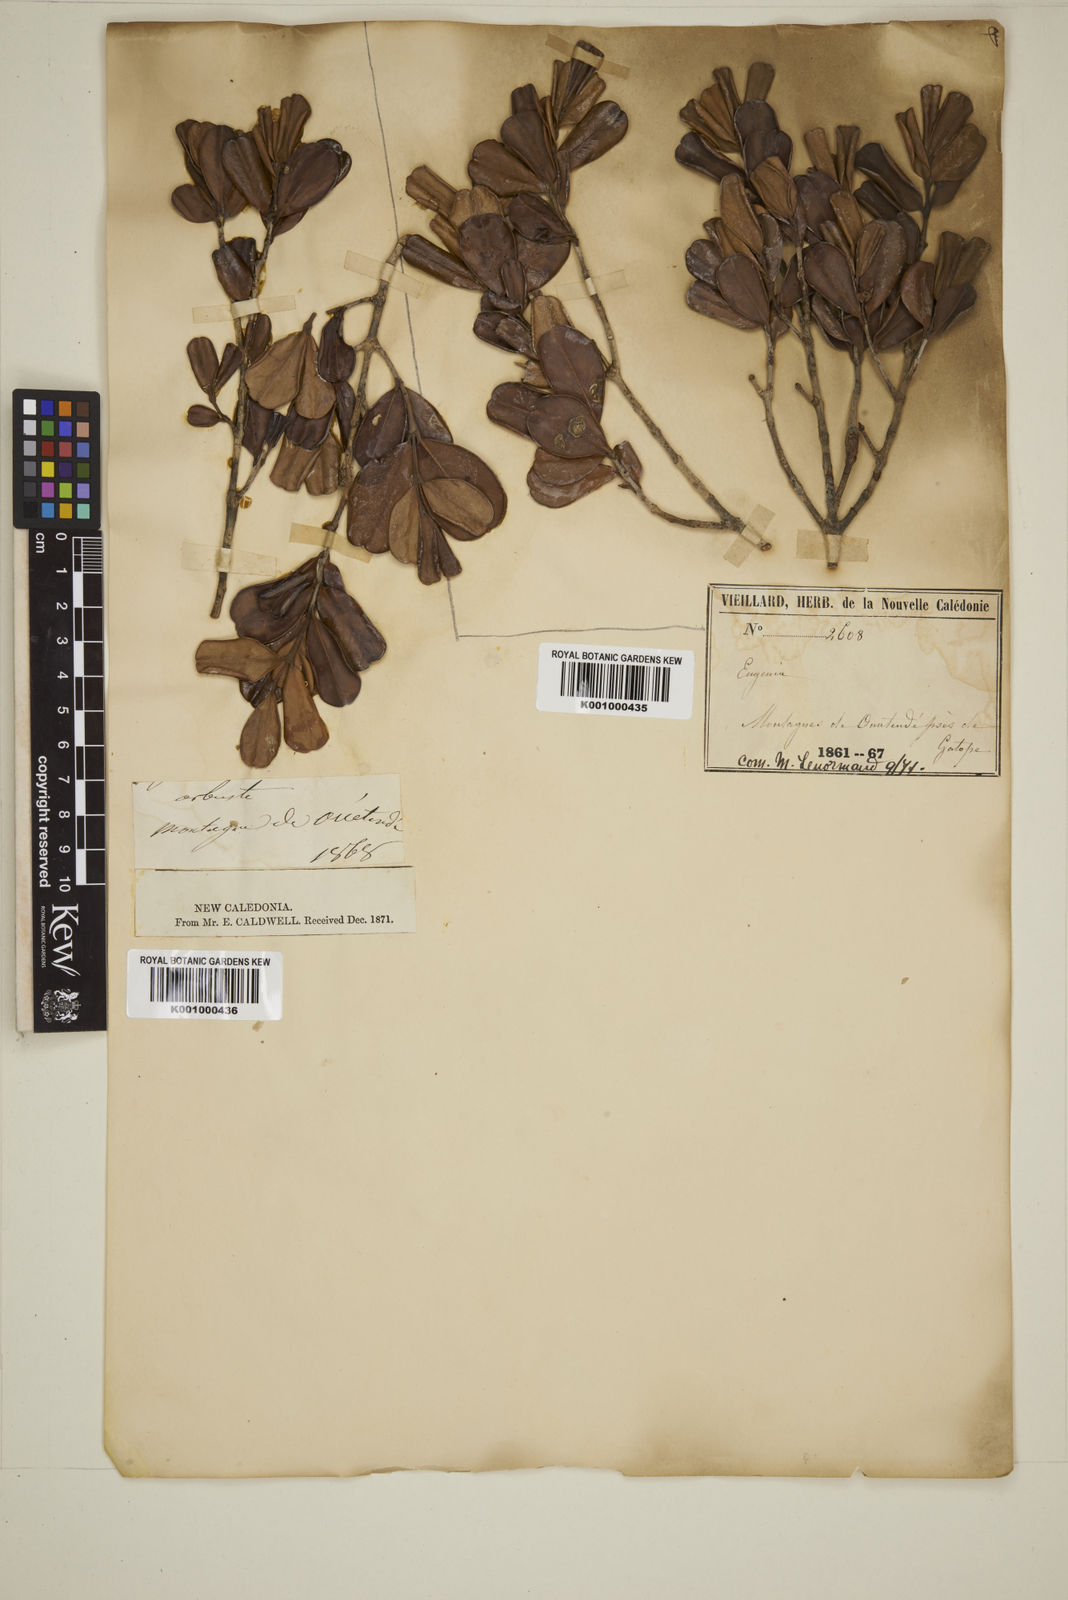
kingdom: Plantae
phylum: Tracheophyta
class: Magnoliopsida
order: Myrtales
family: Myrtaceae
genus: Eugenia
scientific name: Eugenia
